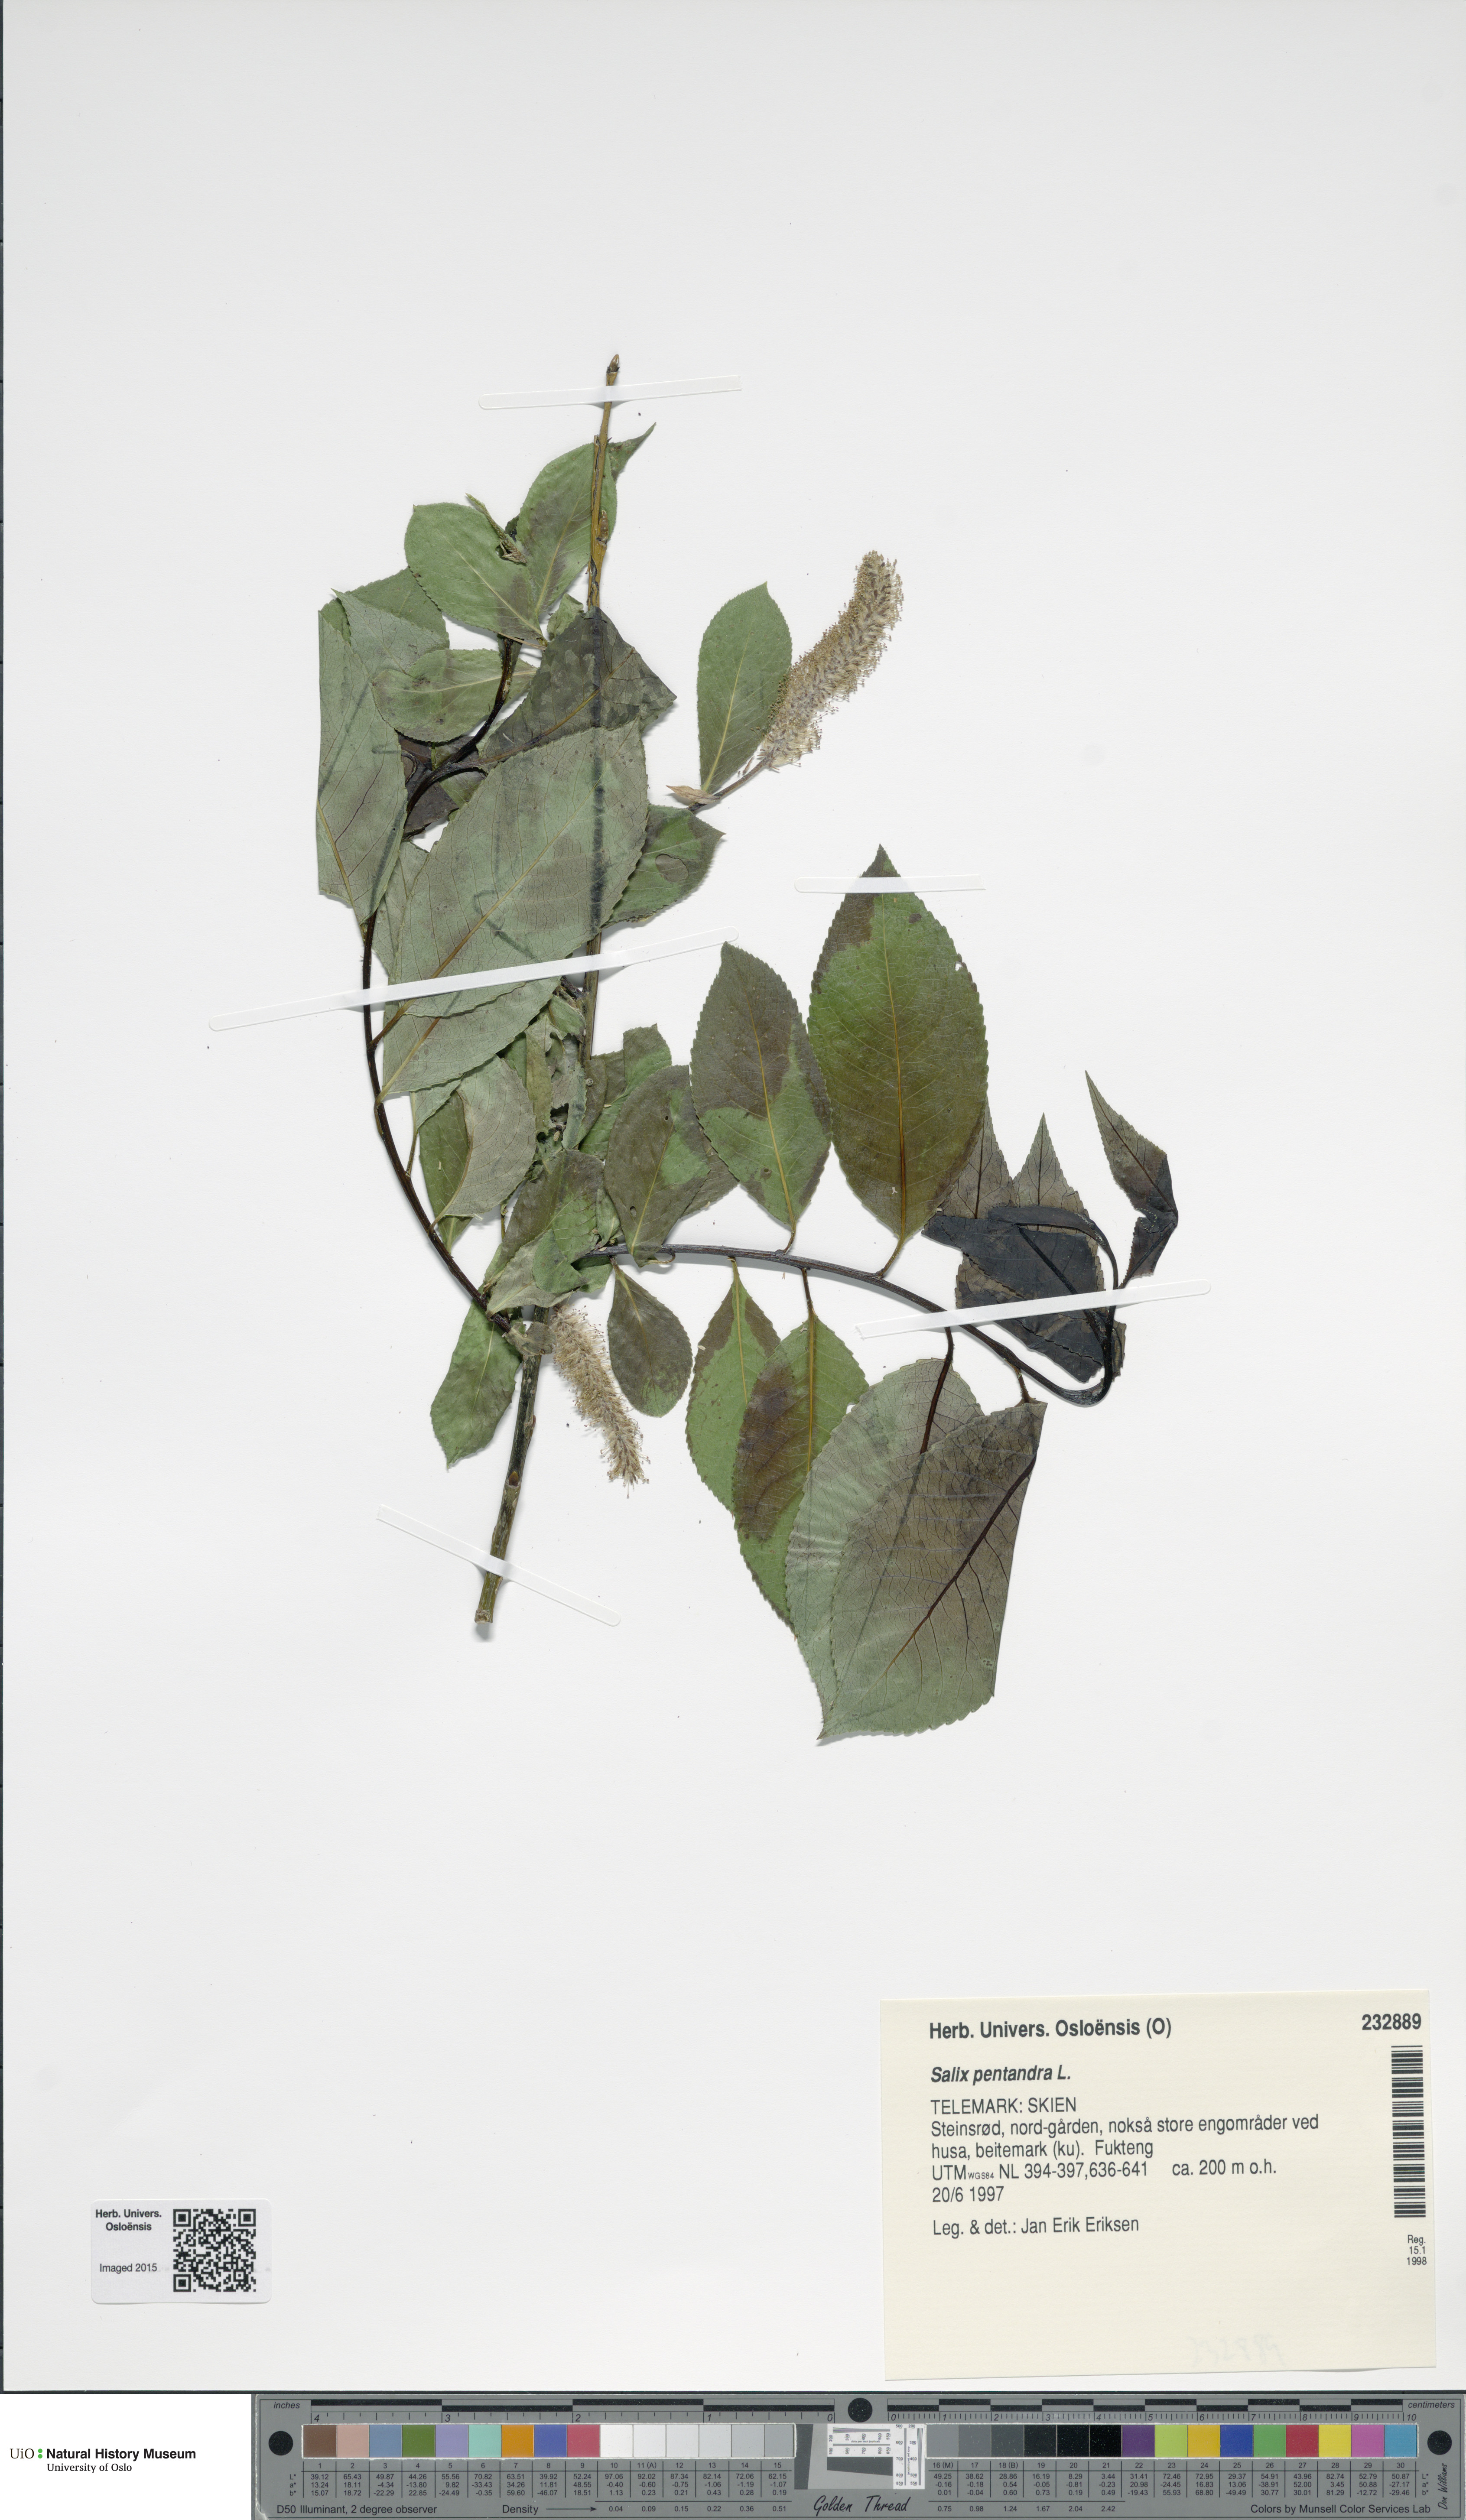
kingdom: Plantae
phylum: Tracheophyta
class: Magnoliopsida
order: Malpighiales
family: Salicaceae
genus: Salix
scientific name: Salix pentandra
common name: Bay willow
